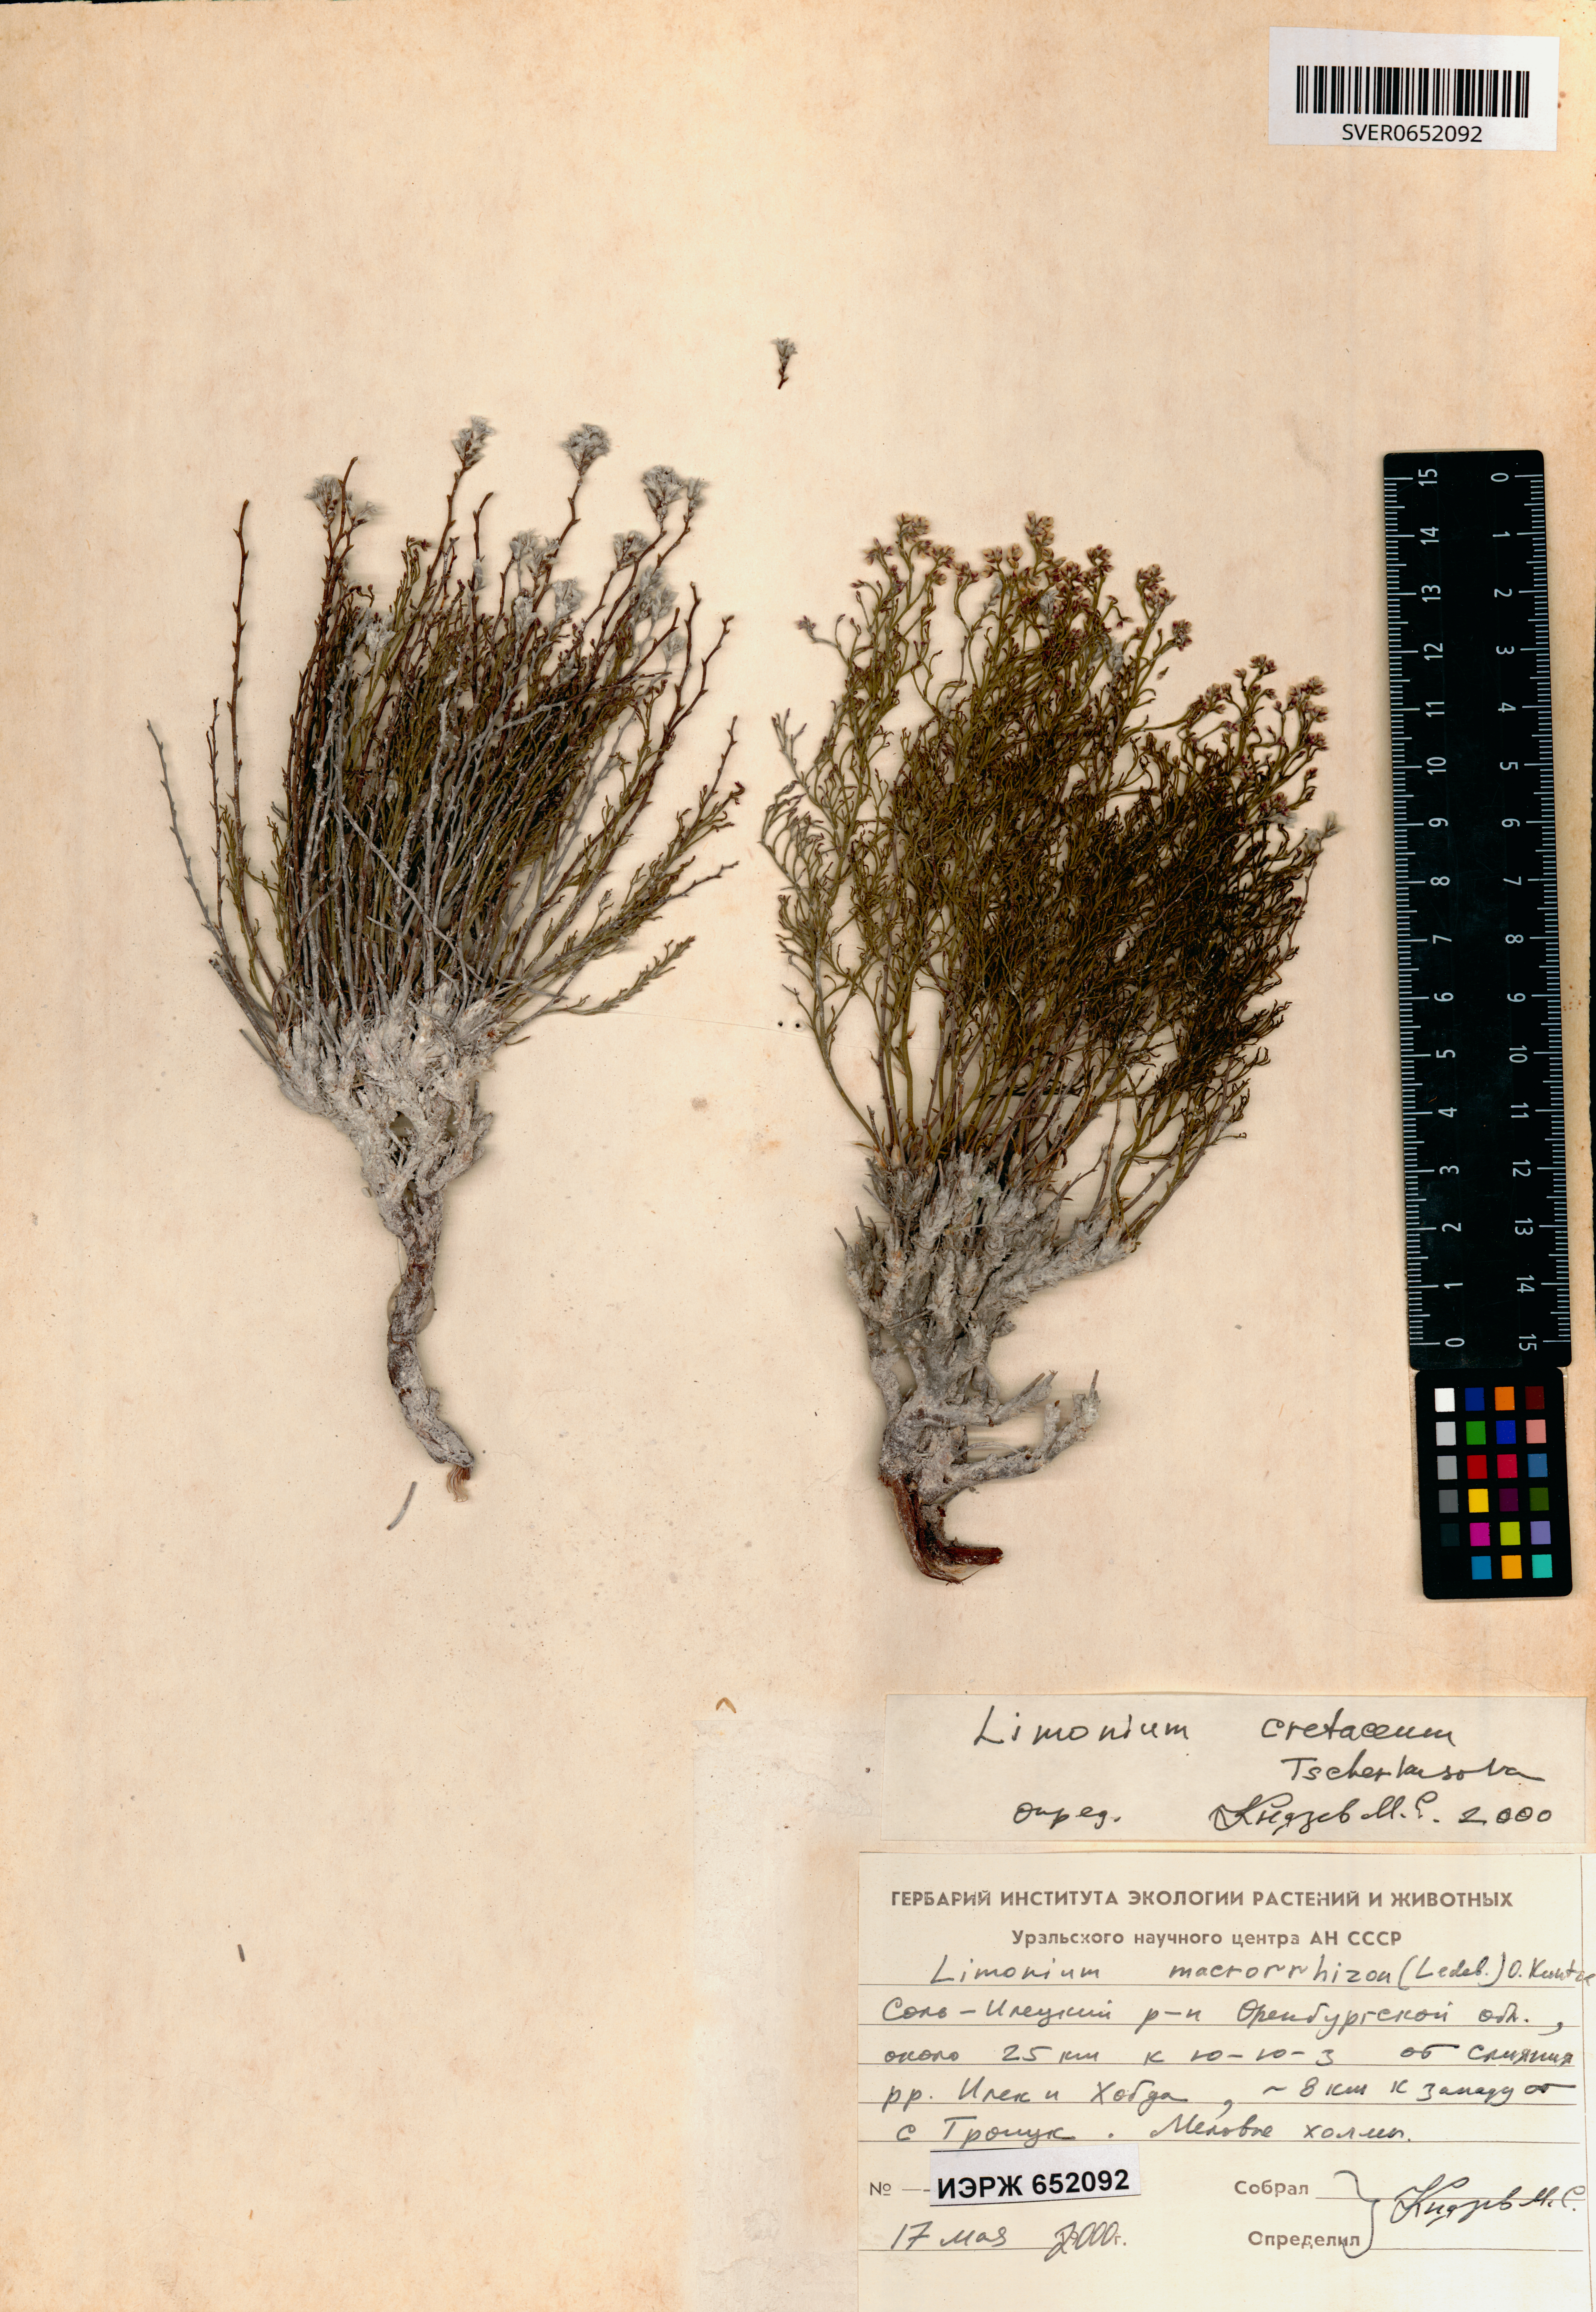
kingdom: Plantae
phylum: Tracheophyta
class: Magnoliopsida
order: Caryophyllales
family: Plumbaginaceae
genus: Limonium
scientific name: Limonium cretaceum
